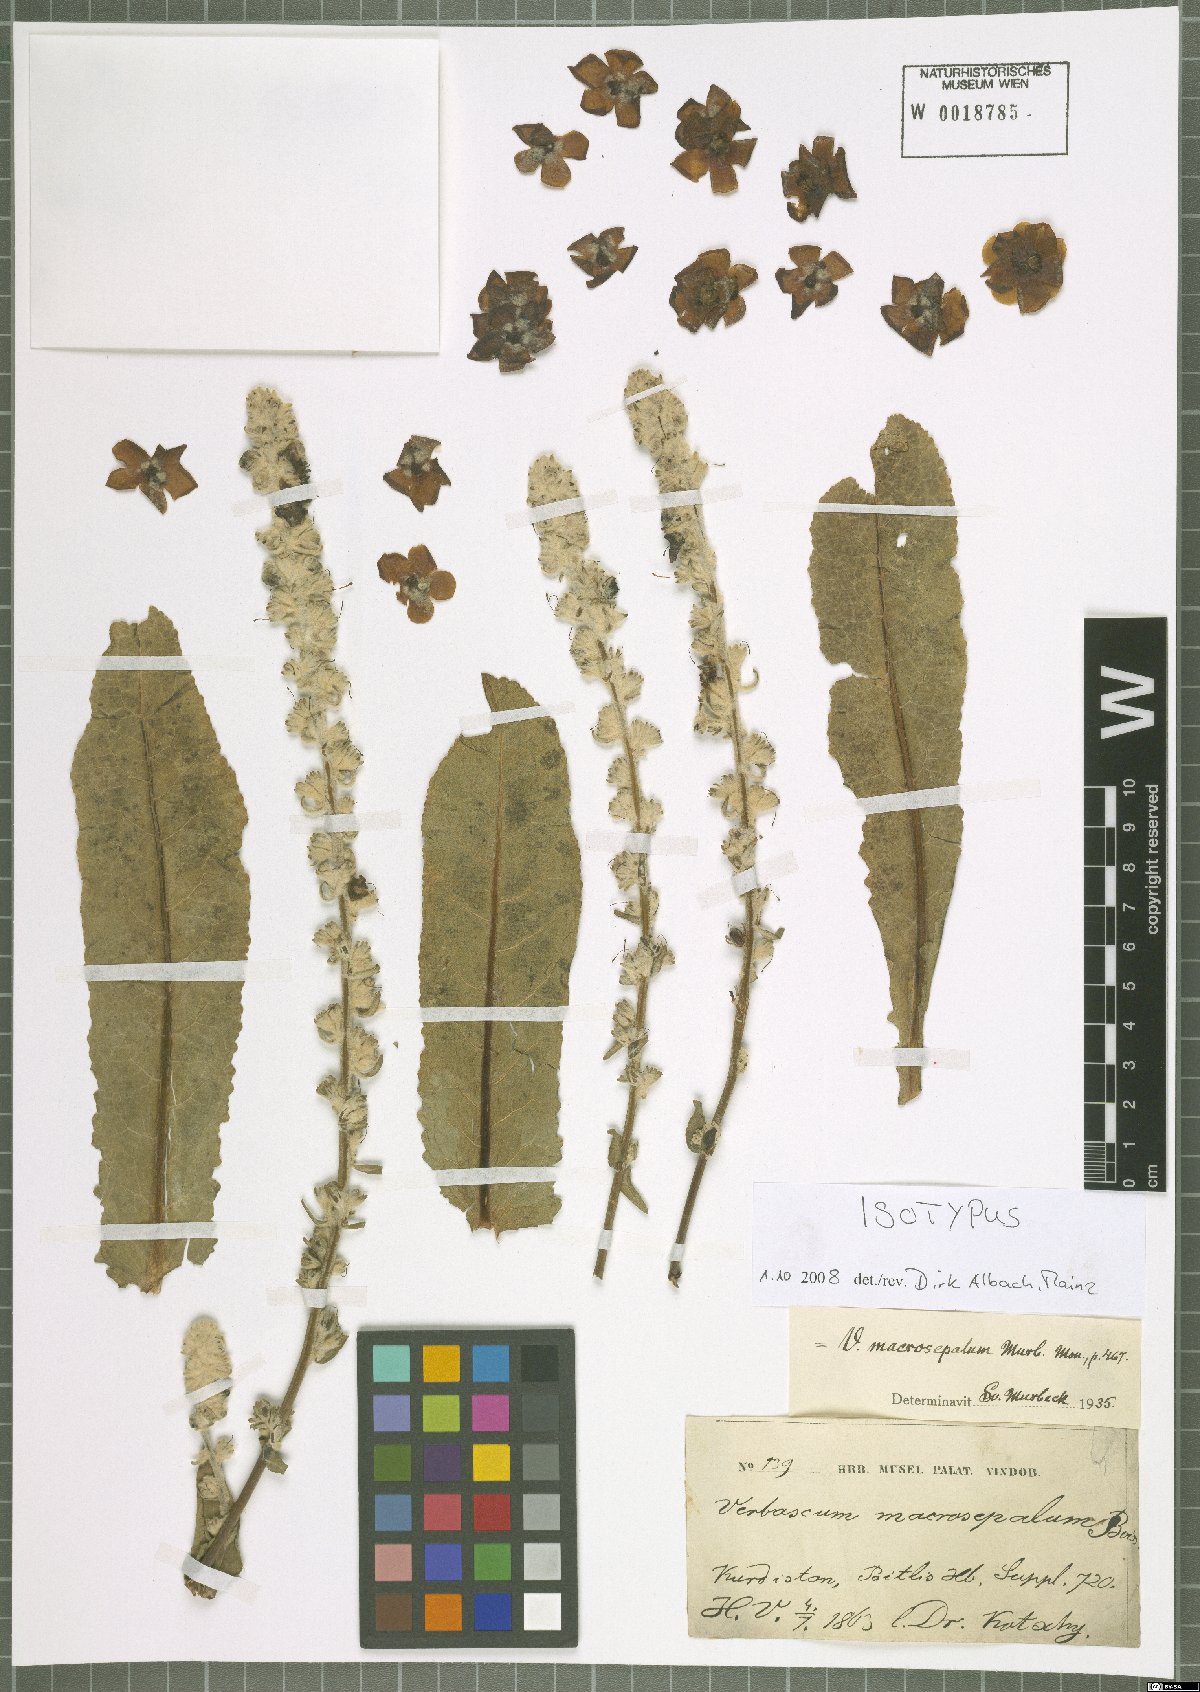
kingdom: Plantae
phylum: Tracheophyta
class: Magnoliopsida
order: Lamiales
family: Scrophulariaceae
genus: Verbascum
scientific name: Verbascum macrosepalum
